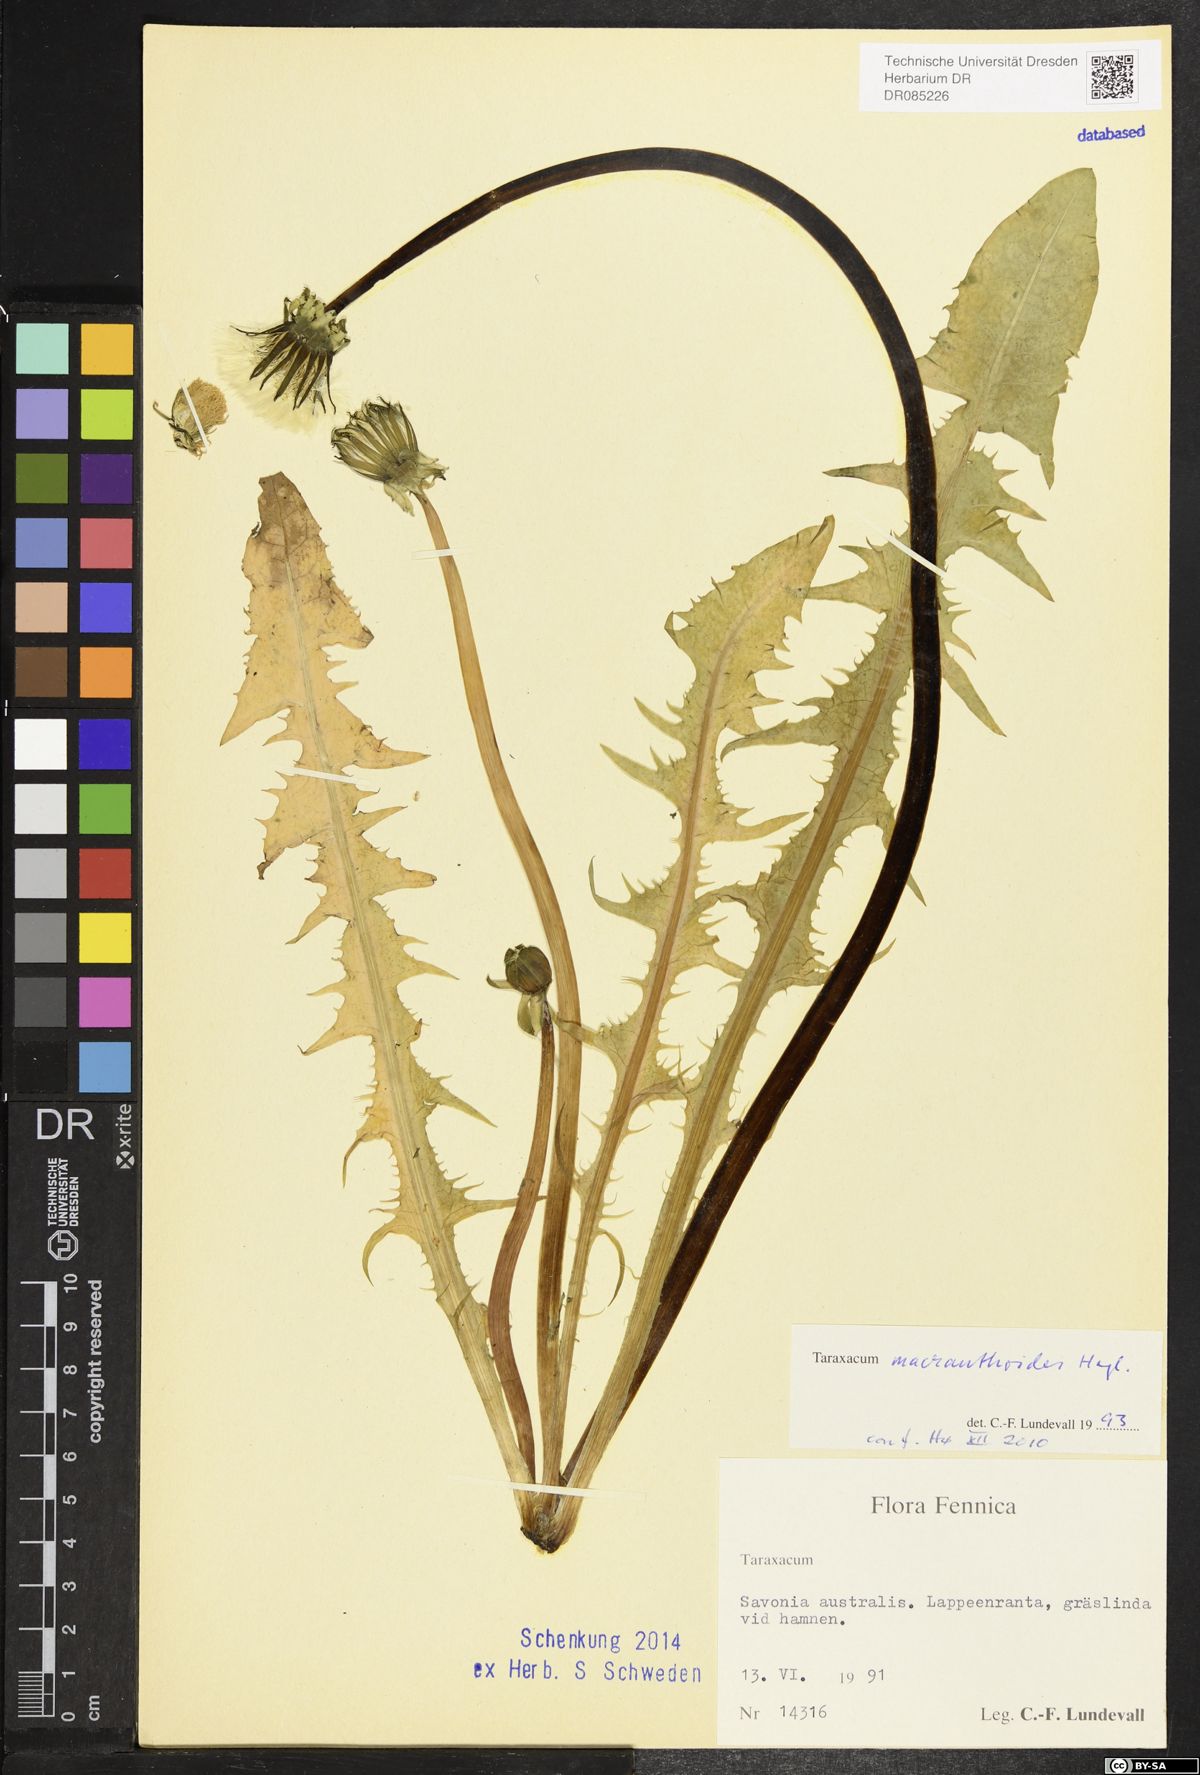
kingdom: Plantae
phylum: Tracheophyta
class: Magnoliopsida
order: Asterales
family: Asteraceae
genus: Taraxacum
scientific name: Taraxacum macranthoides
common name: Large-flowered dandelion
